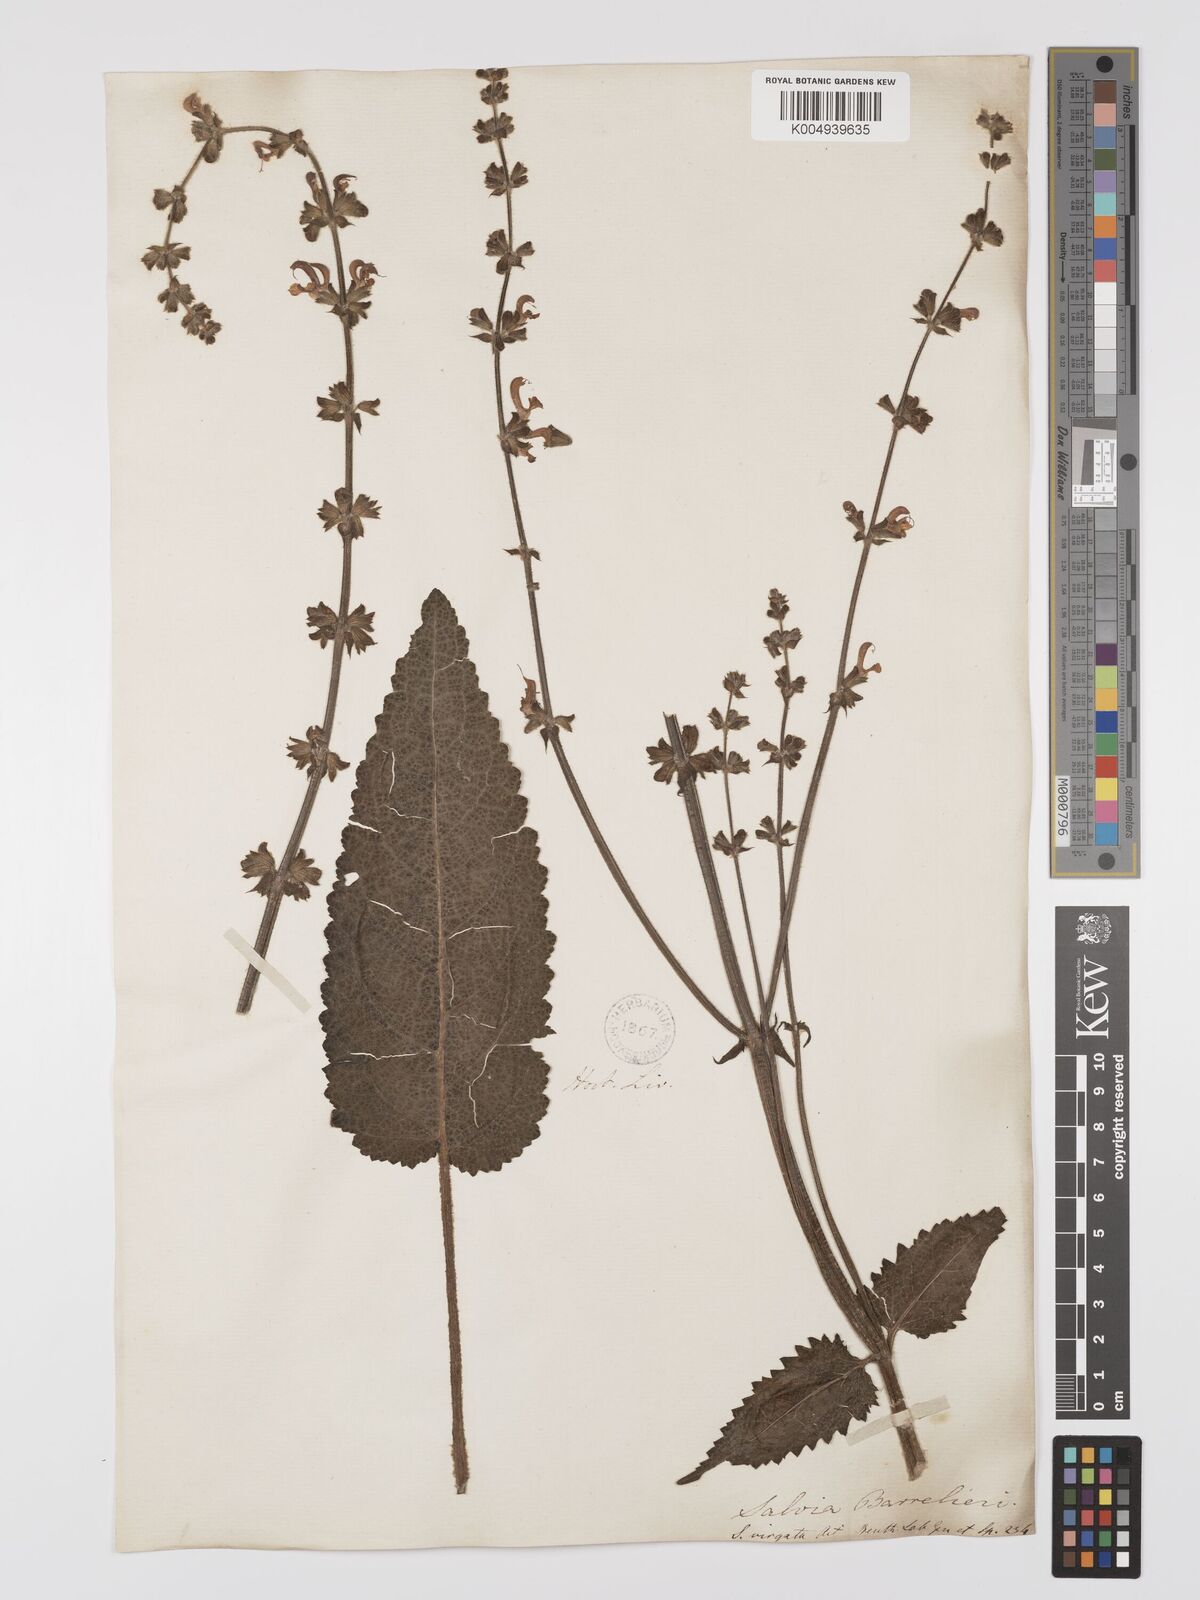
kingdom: Plantae
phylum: Tracheophyta
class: Magnoliopsida
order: Lamiales
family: Lamiaceae
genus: Salvia
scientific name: Salvia
